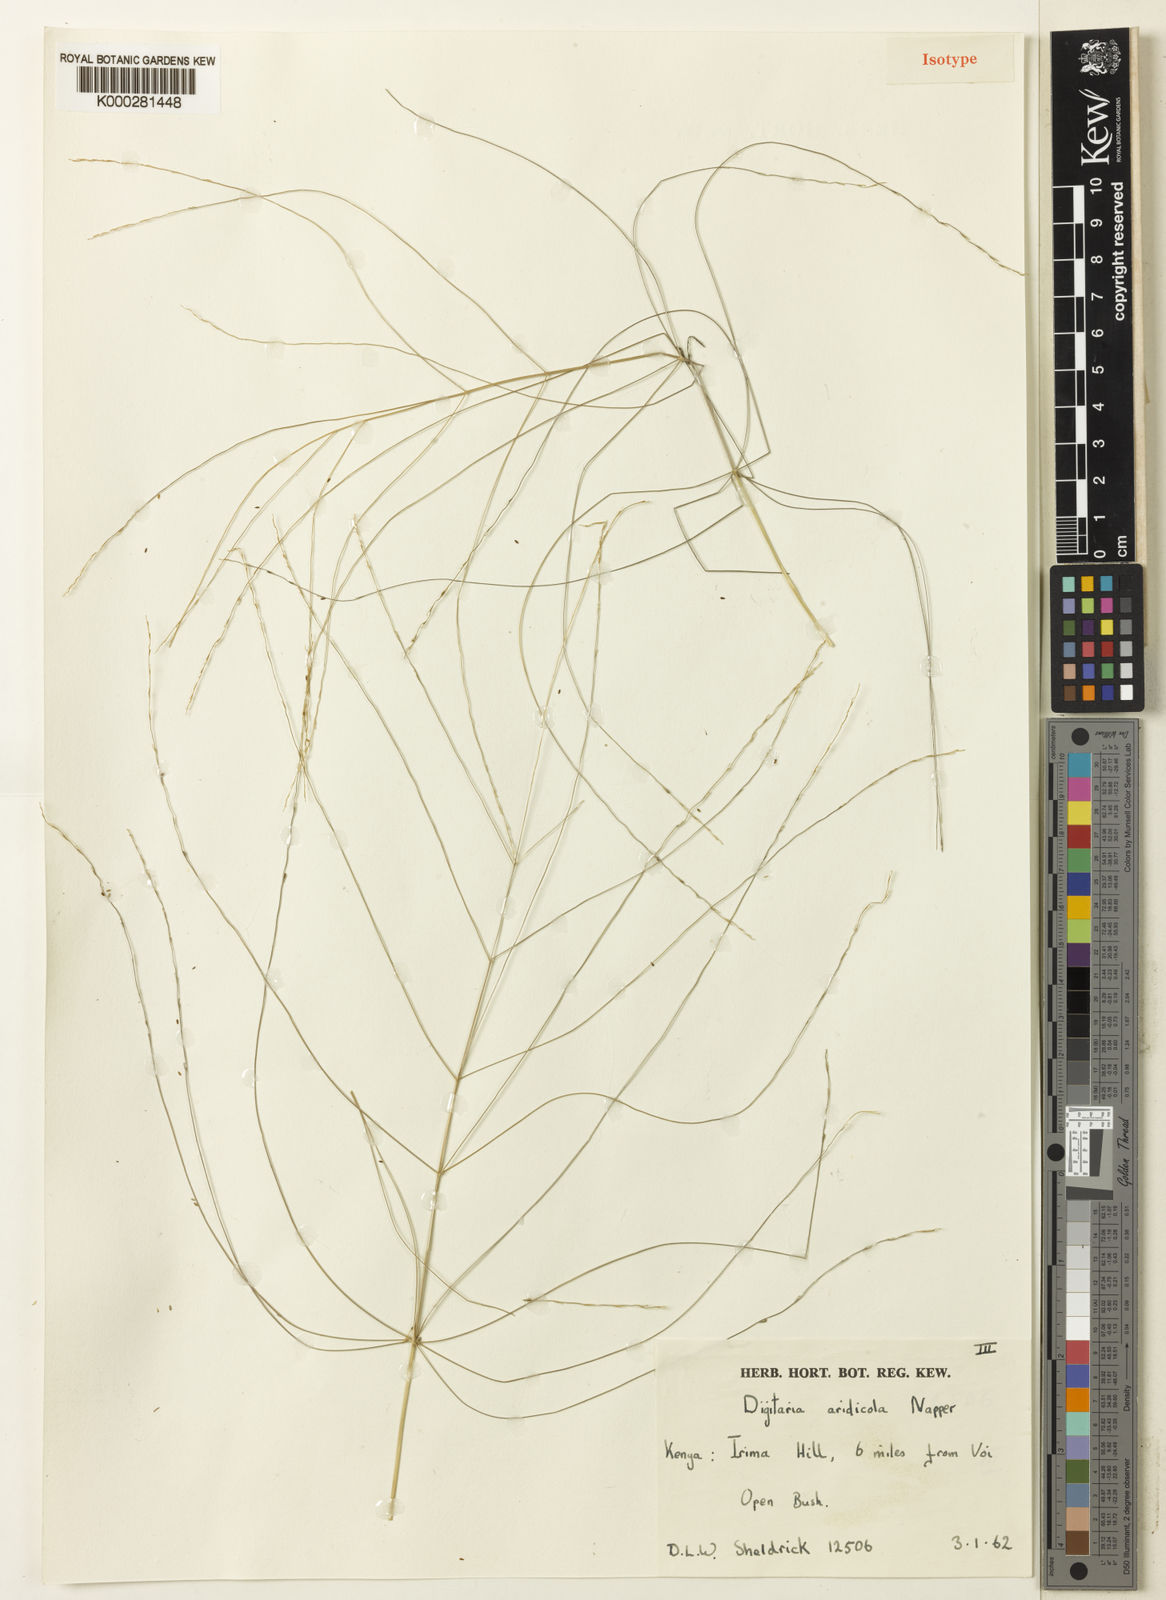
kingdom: Plantae
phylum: Tracheophyta
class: Liliopsida
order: Poales
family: Poaceae
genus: Digitaria
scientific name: Digitaria aridicola
